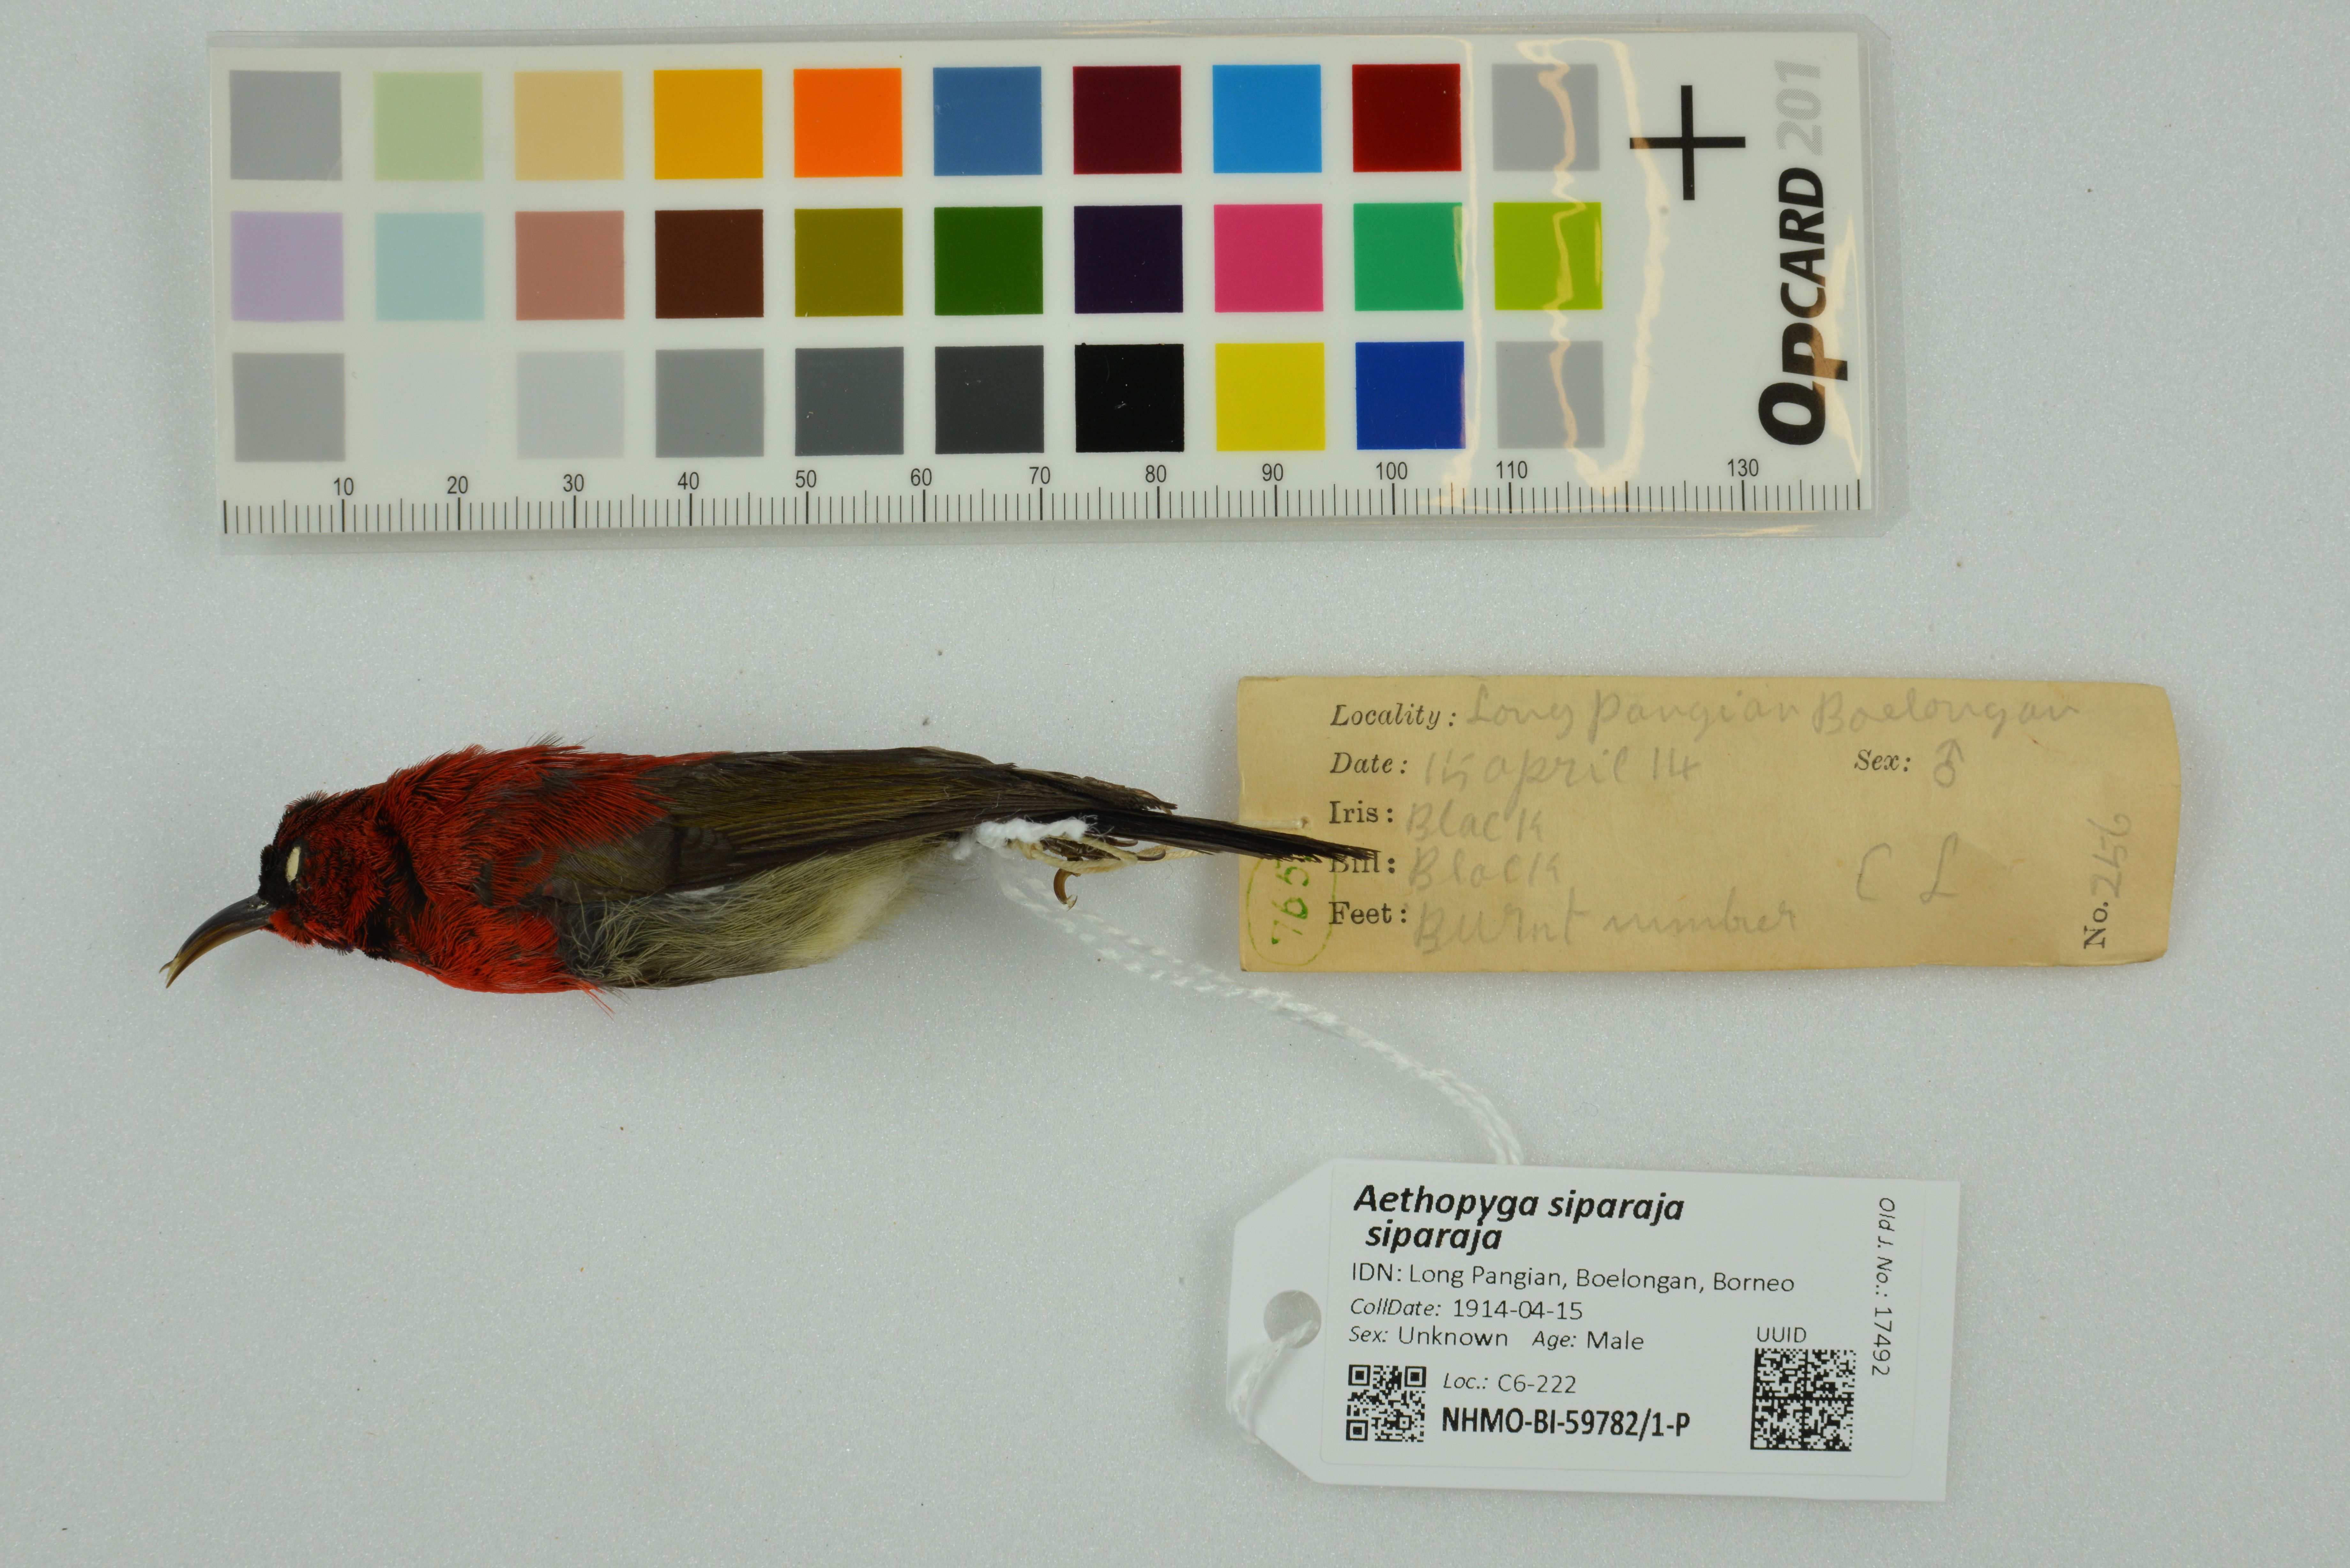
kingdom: Animalia
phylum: Chordata
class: Aves
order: Passeriformes
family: Nectariniidae
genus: Aethopyga
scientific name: Aethopyga siparaja
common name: Crimson sunbird
